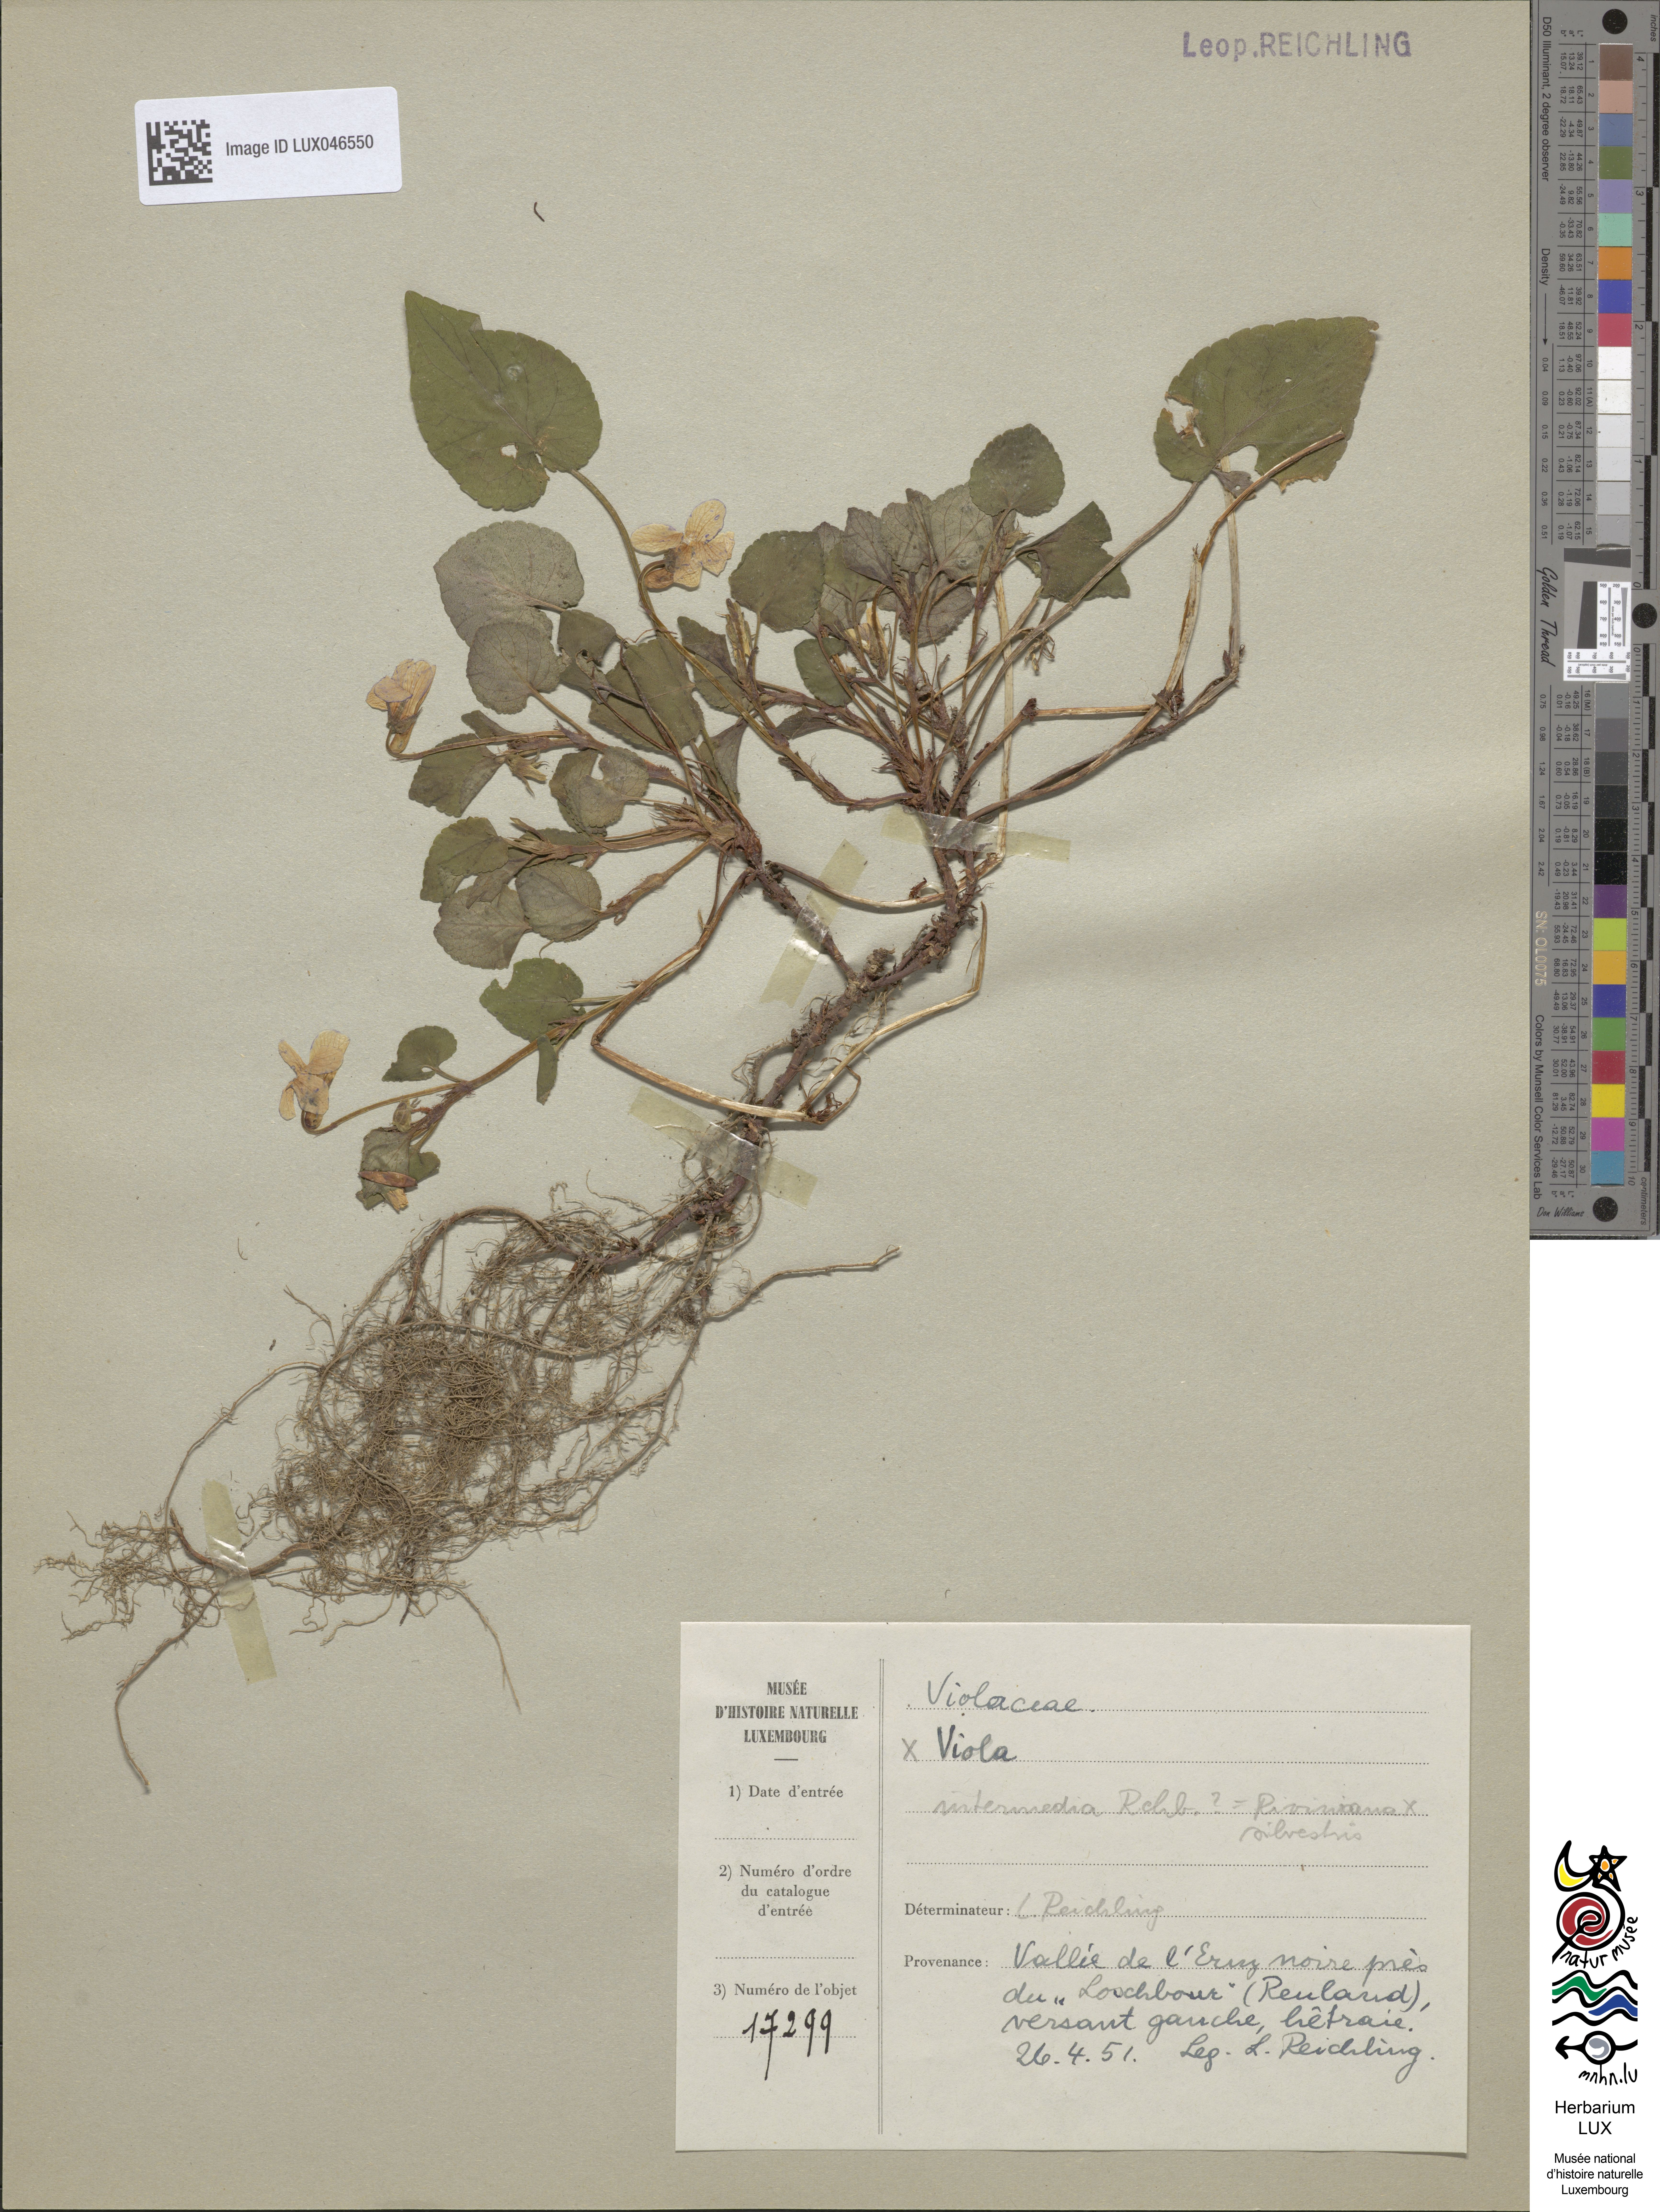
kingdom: Plantae
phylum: Tracheophyta
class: Magnoliopsida
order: Malpighiales
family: Violaceae
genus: Viola
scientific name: Viola
